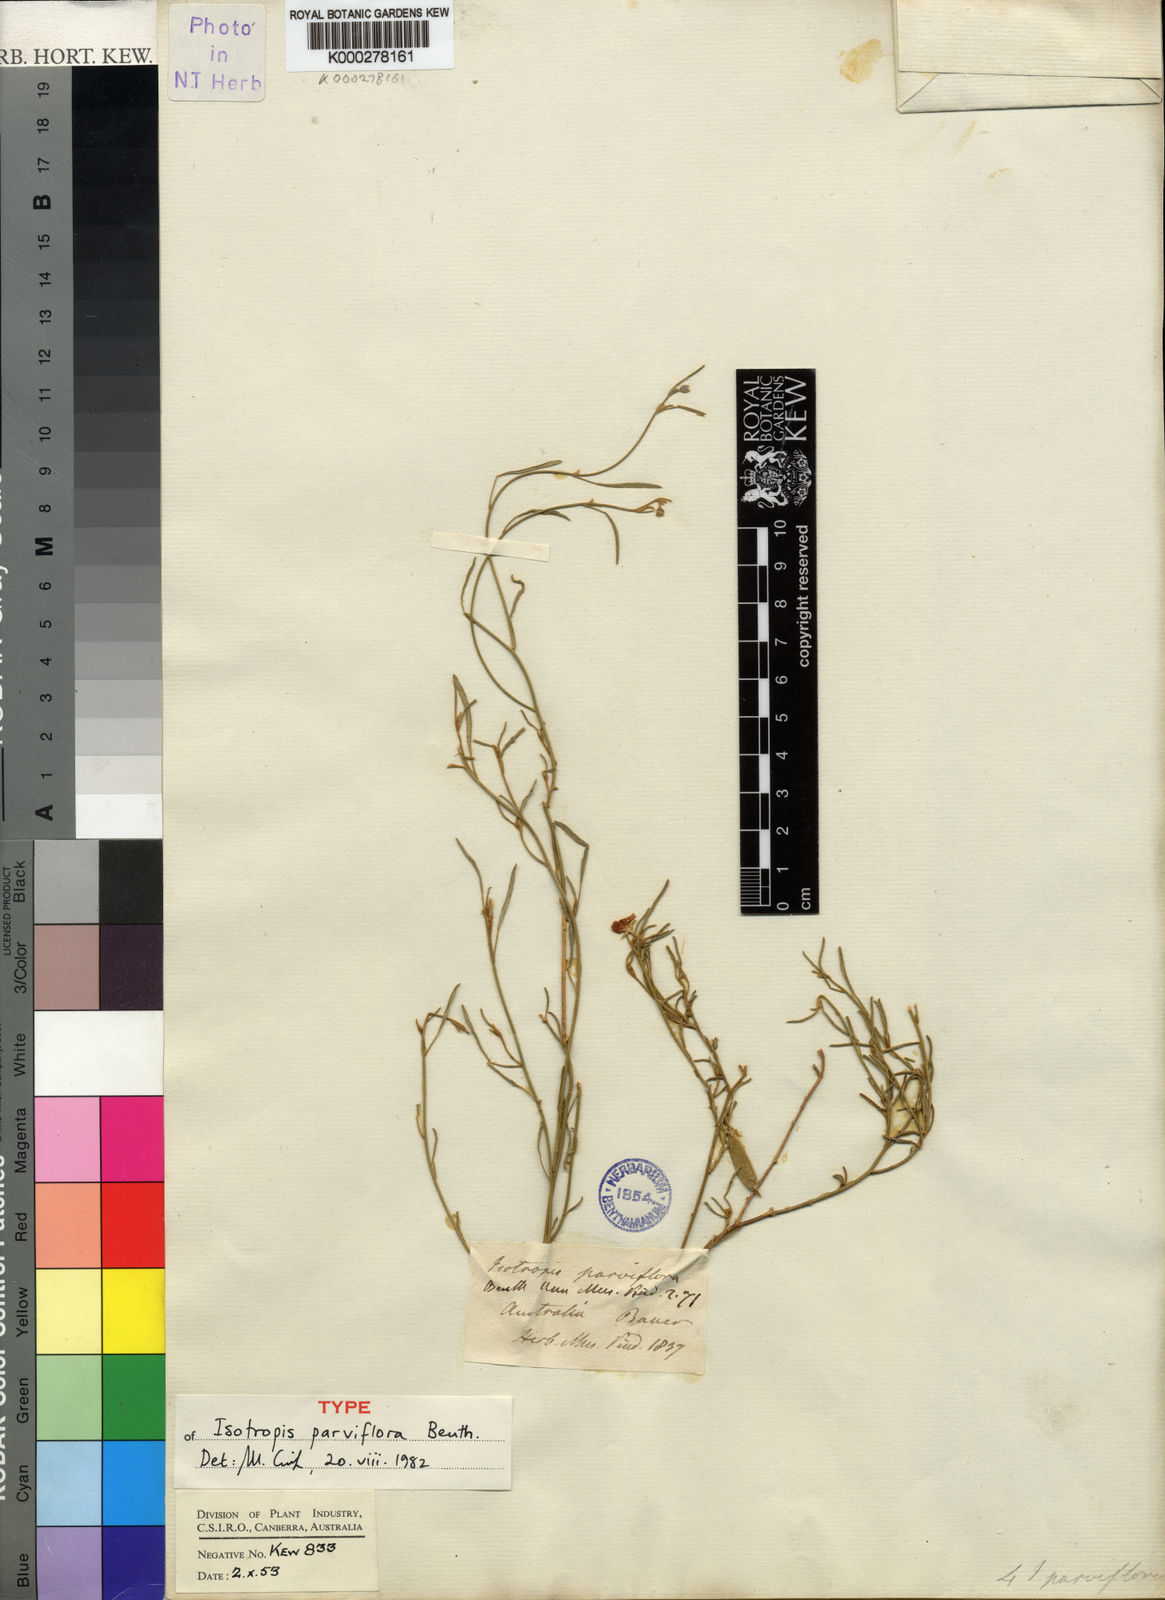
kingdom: Plantae
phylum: Tracheophyta
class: Magnoliopsida
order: Fabales
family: Fabaceae
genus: Isotropis
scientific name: Isotropis parviflora
